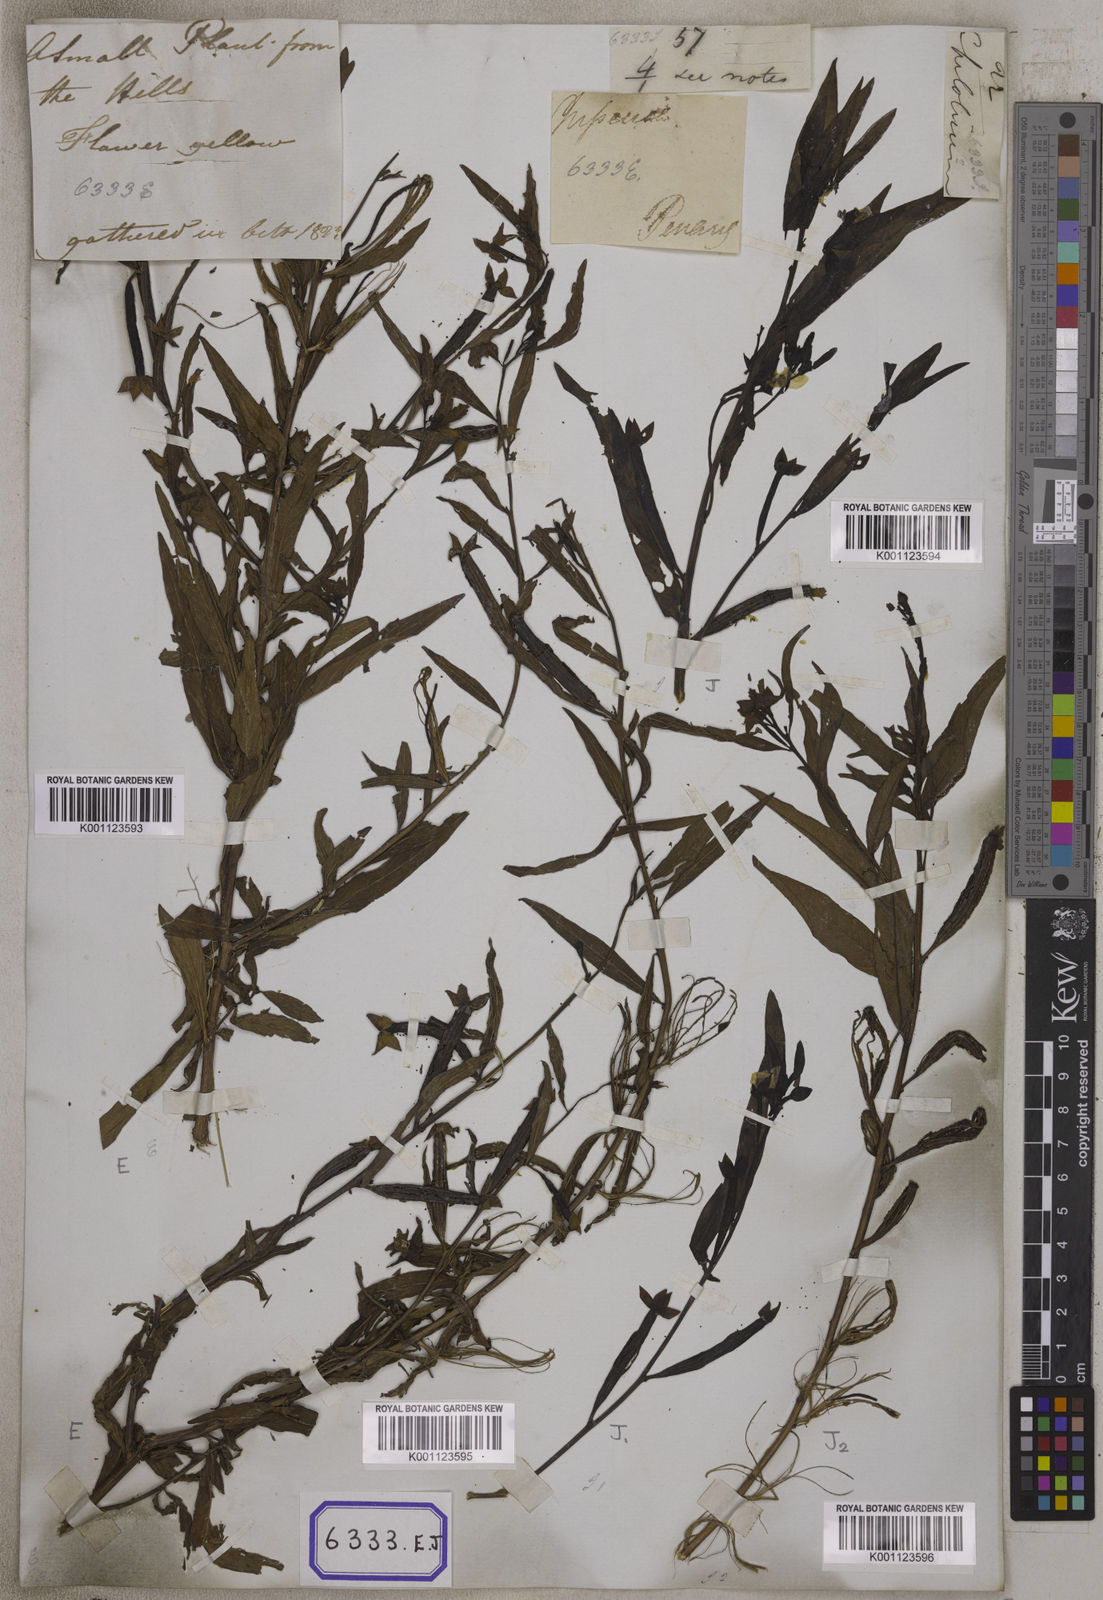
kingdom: Plantae
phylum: Tracheophyta
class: Magnoliopsida
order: Myrtales
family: Onagraceae
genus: Ludwigia
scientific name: Ludwigia octovalvis
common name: Water-primrose
